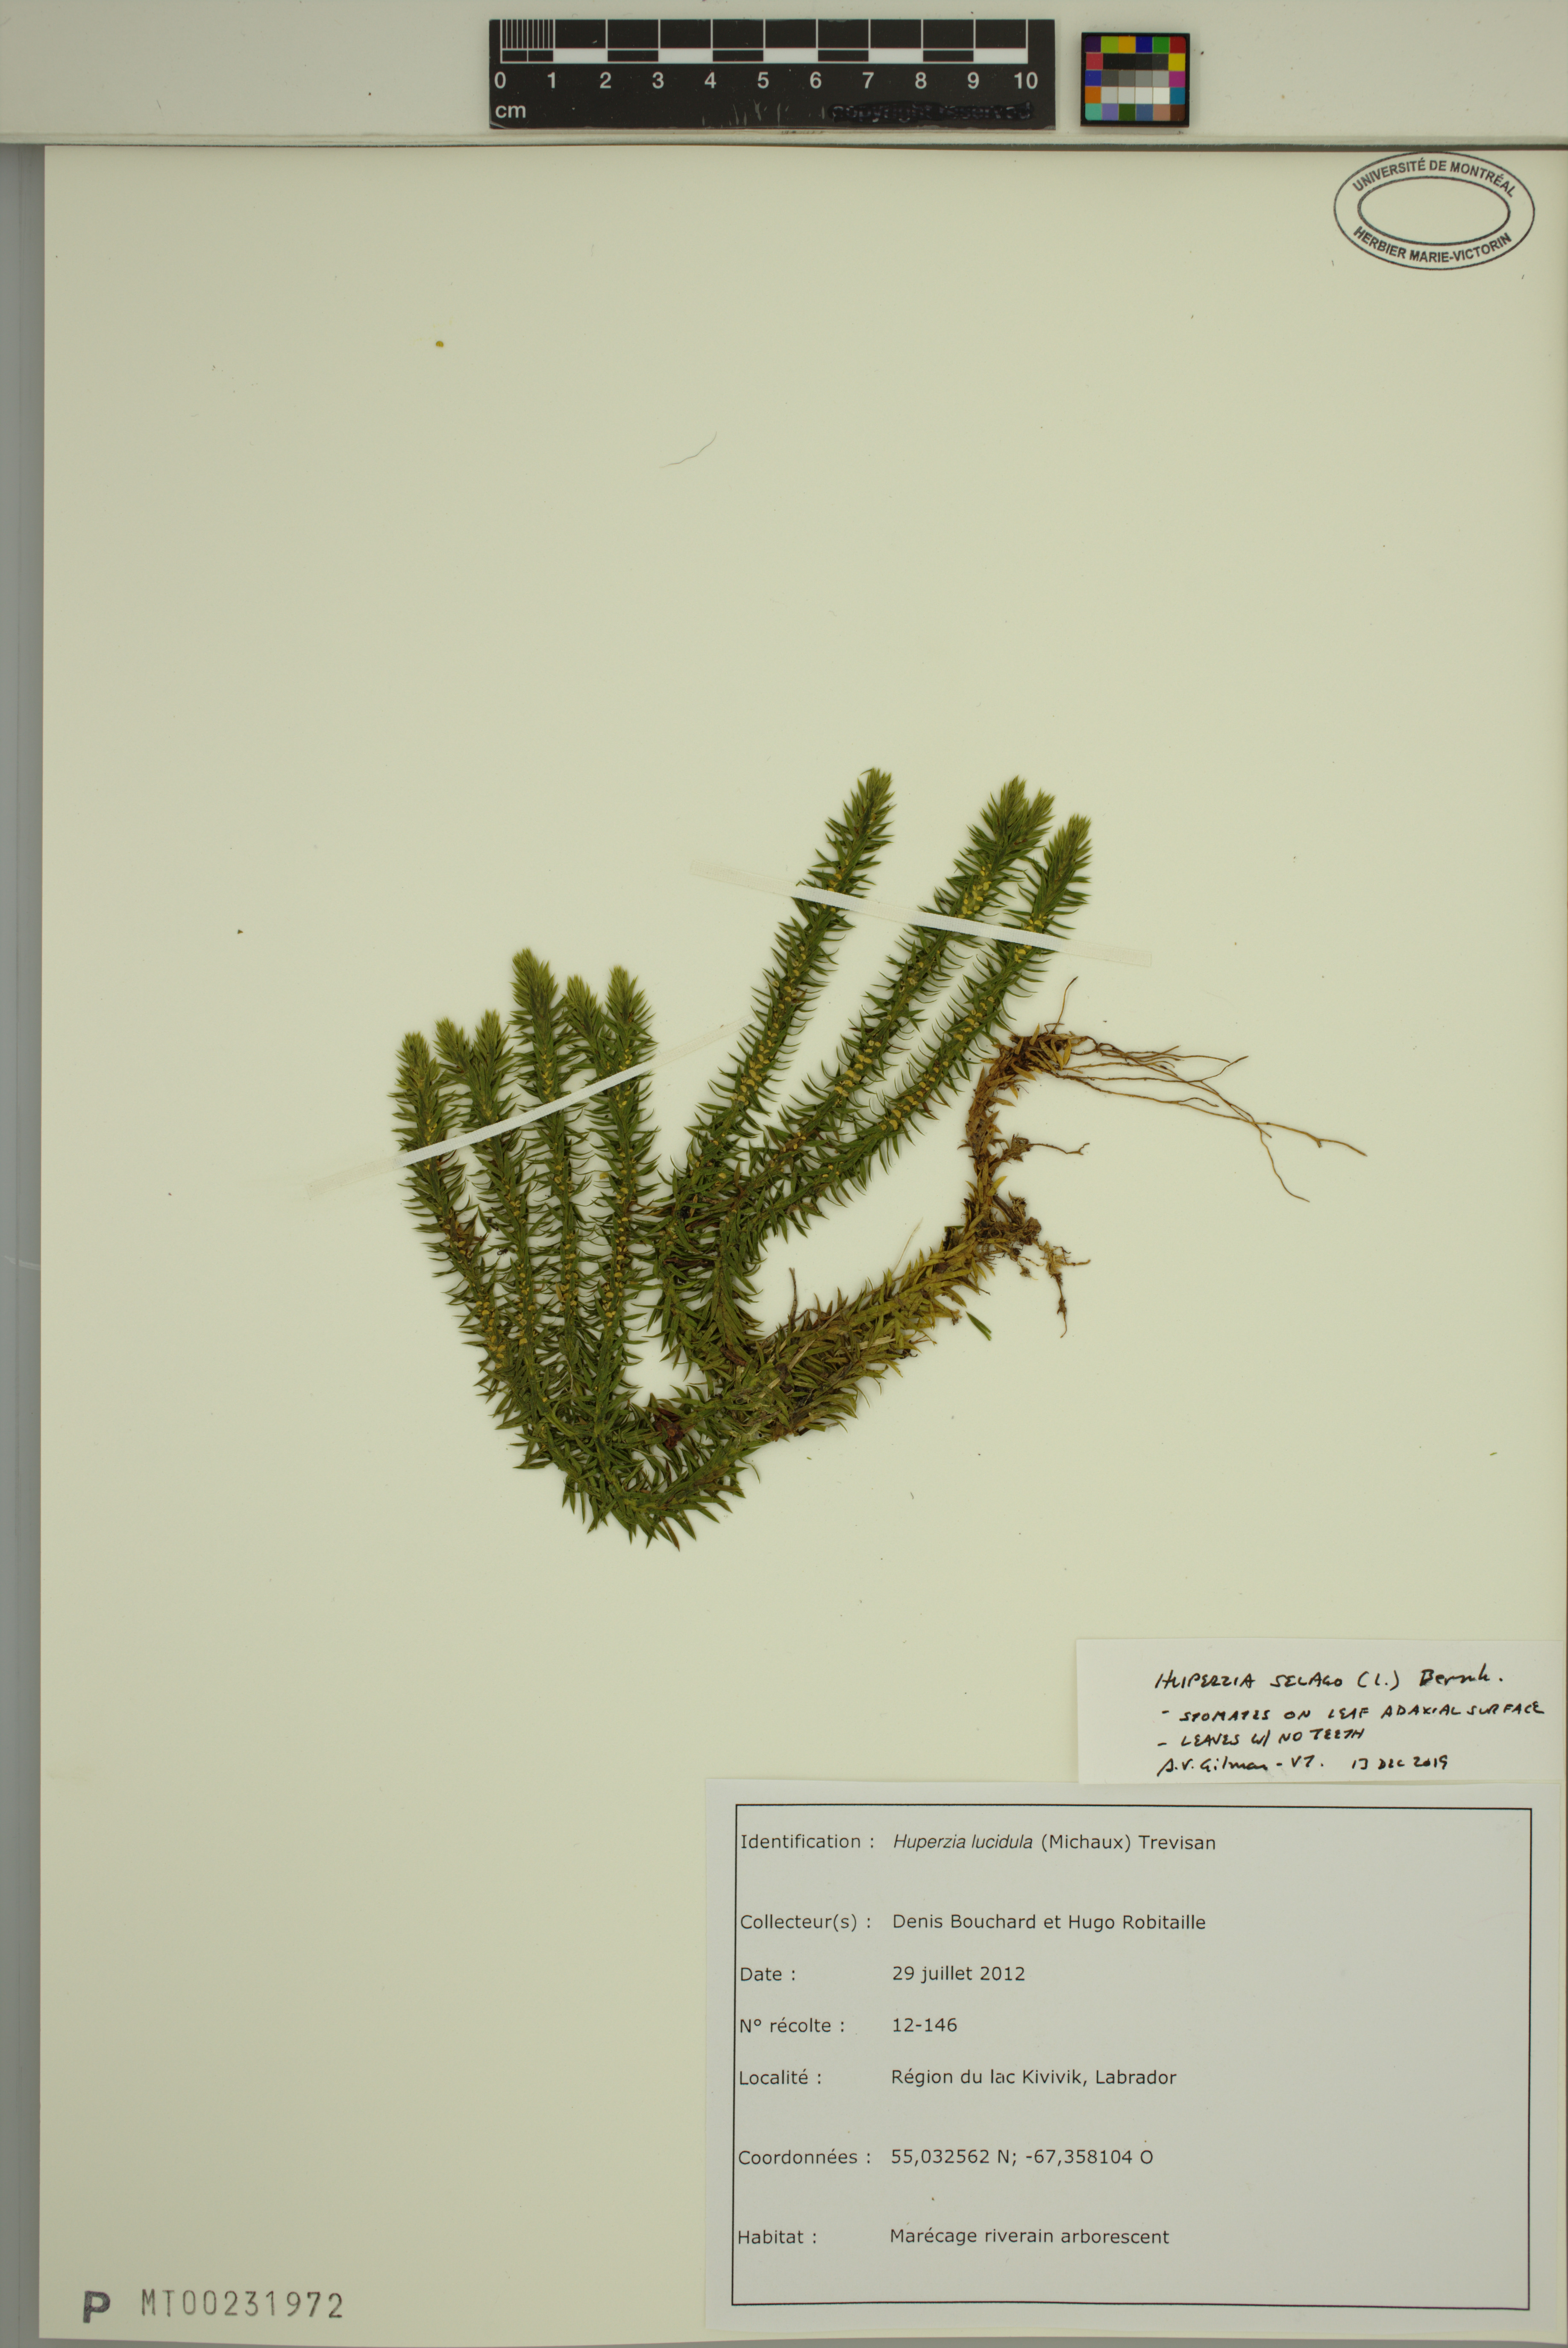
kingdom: Plantae
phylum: Tracheophyta
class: Lycopodiopsida
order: Lycopodiales
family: Lycopodiaceae
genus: Huperzia
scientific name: Huperzia selago
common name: Northern firmoss
